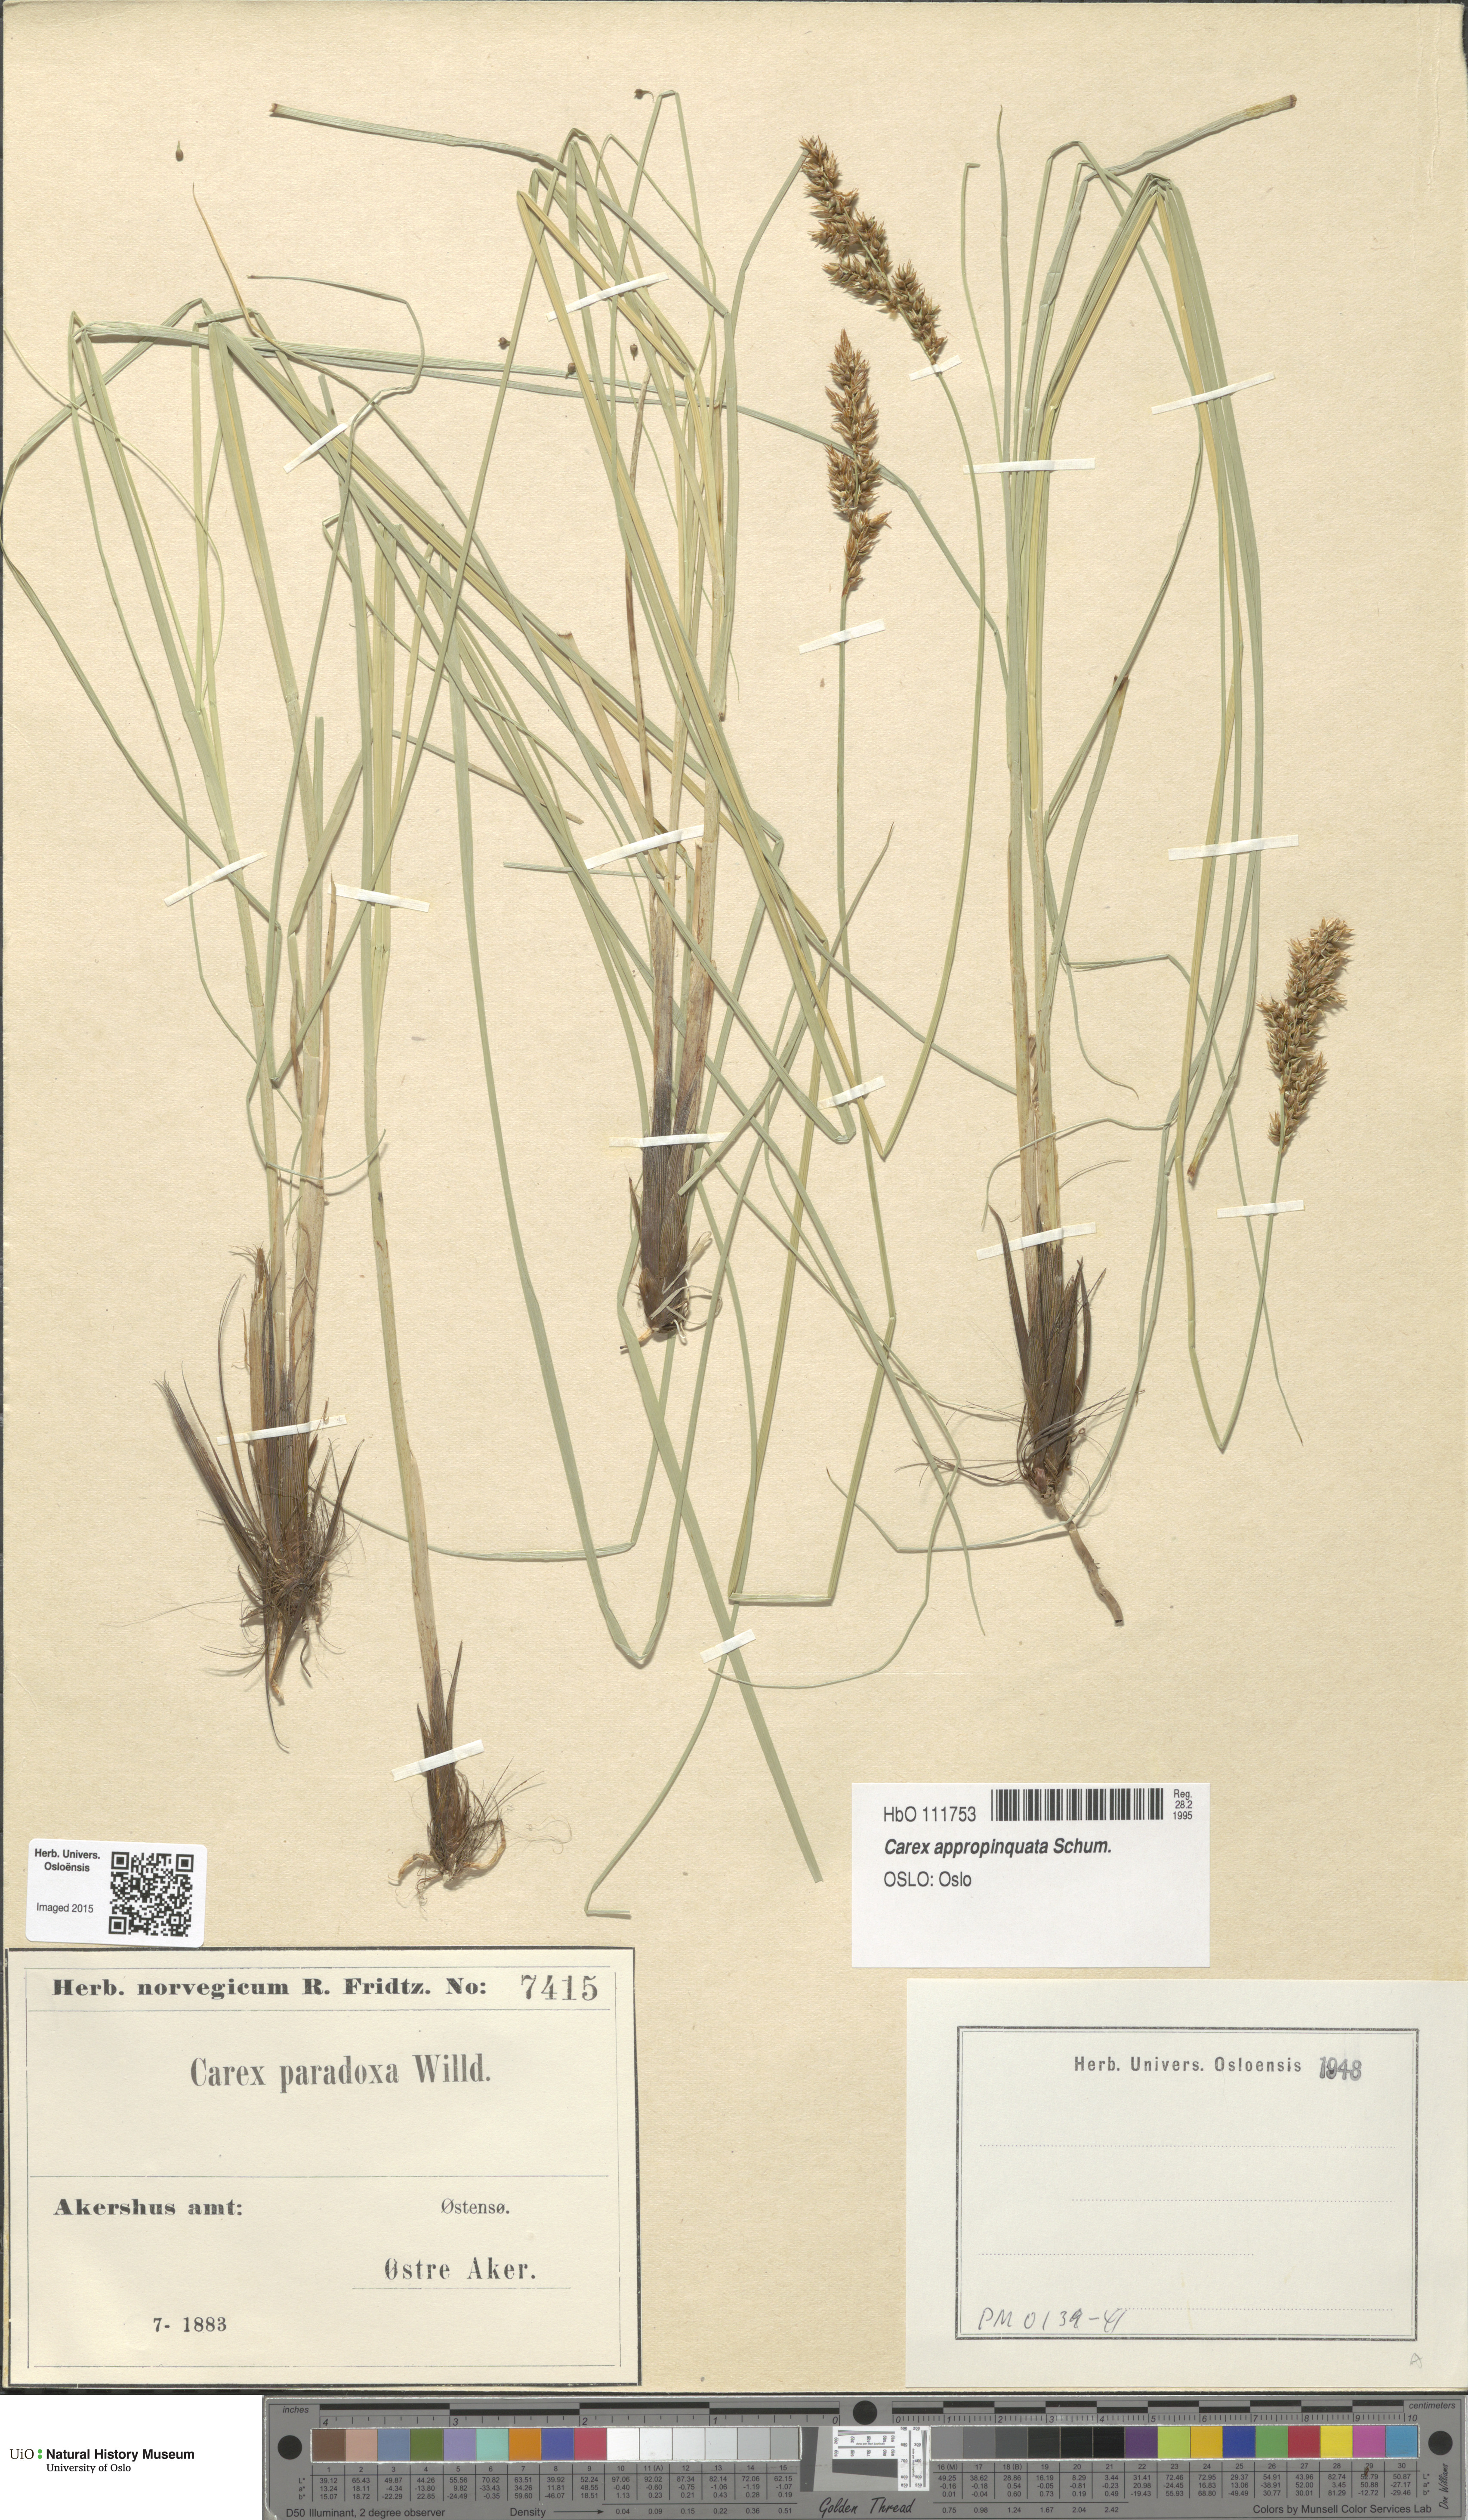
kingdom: Plantae
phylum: Tracheophyta
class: Liliopsida
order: Poales
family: Cyperaceae
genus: Carex
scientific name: Carex appropinquata
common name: Fibrous tussock-sedge
